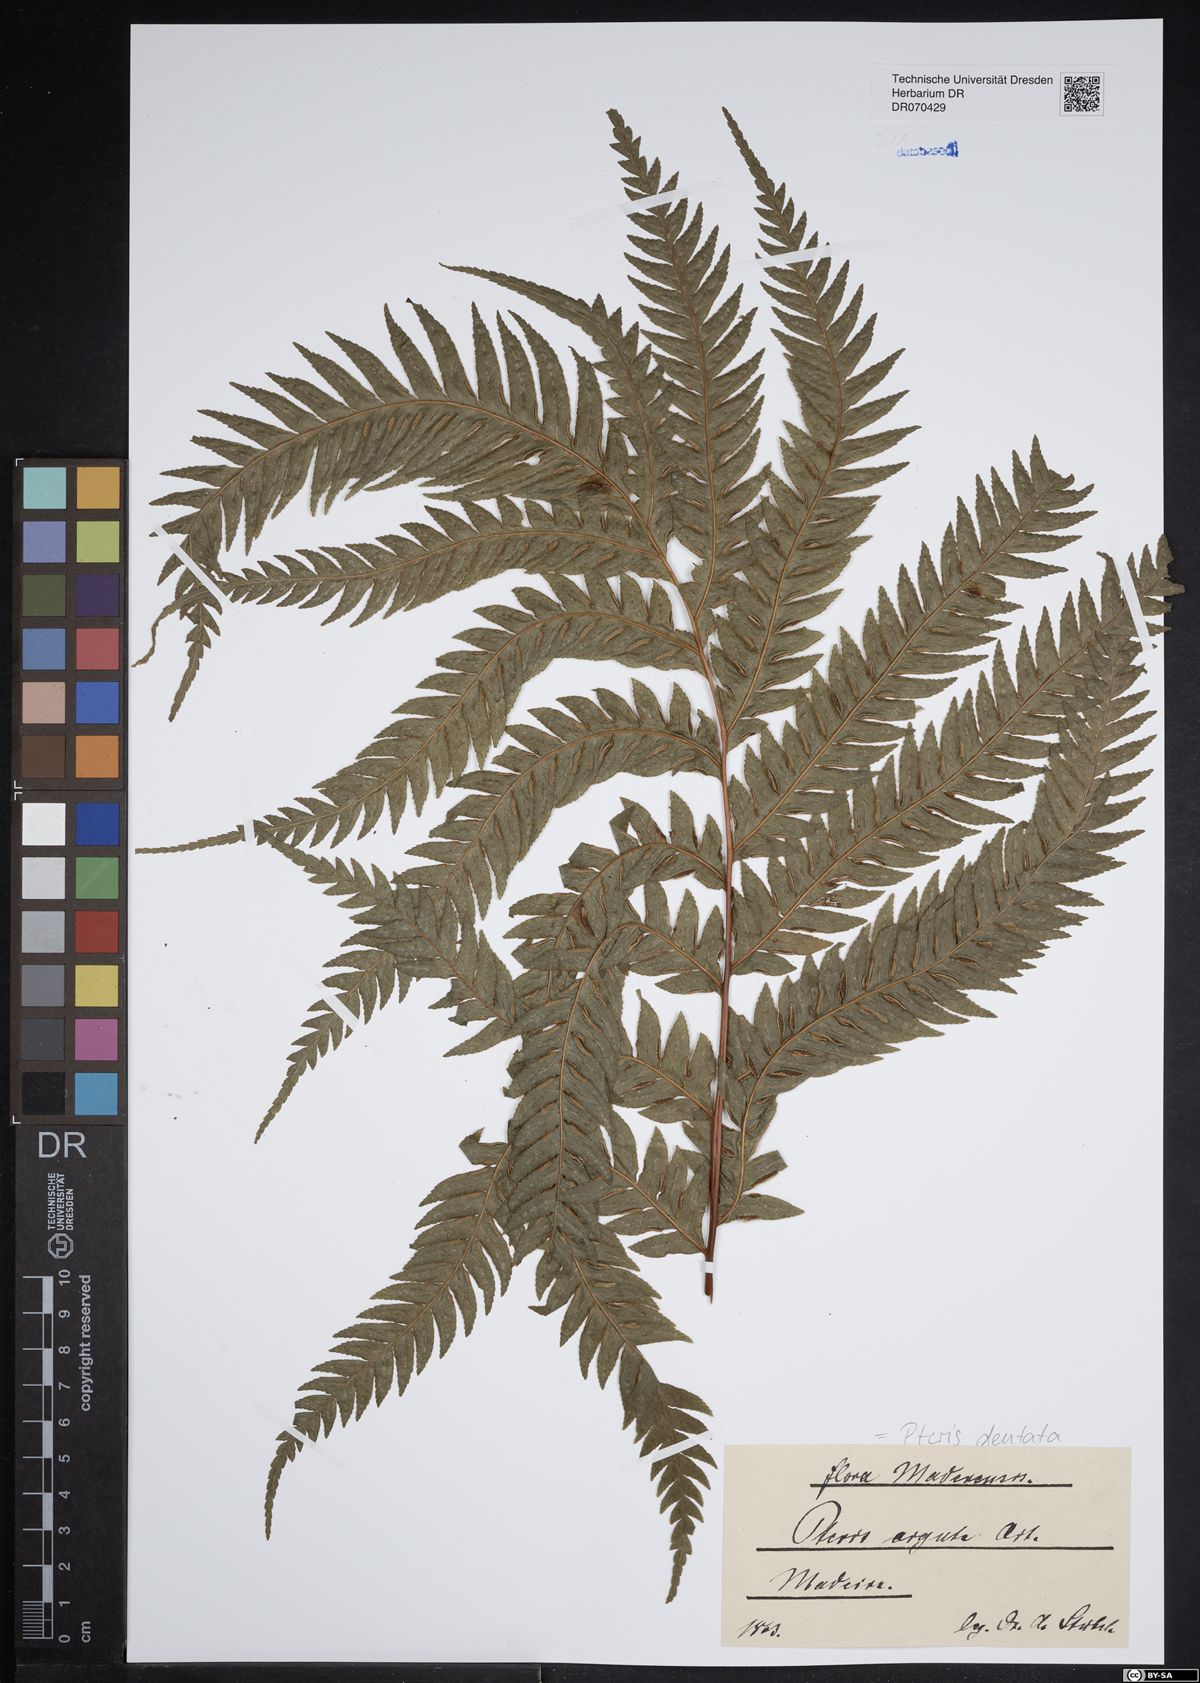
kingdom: Plantae
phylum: Tracheophyta
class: Polypodiopsida
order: Polypodiales
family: Pteridaceae
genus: Pteris
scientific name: Pteris dentata
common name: Toothed brake
